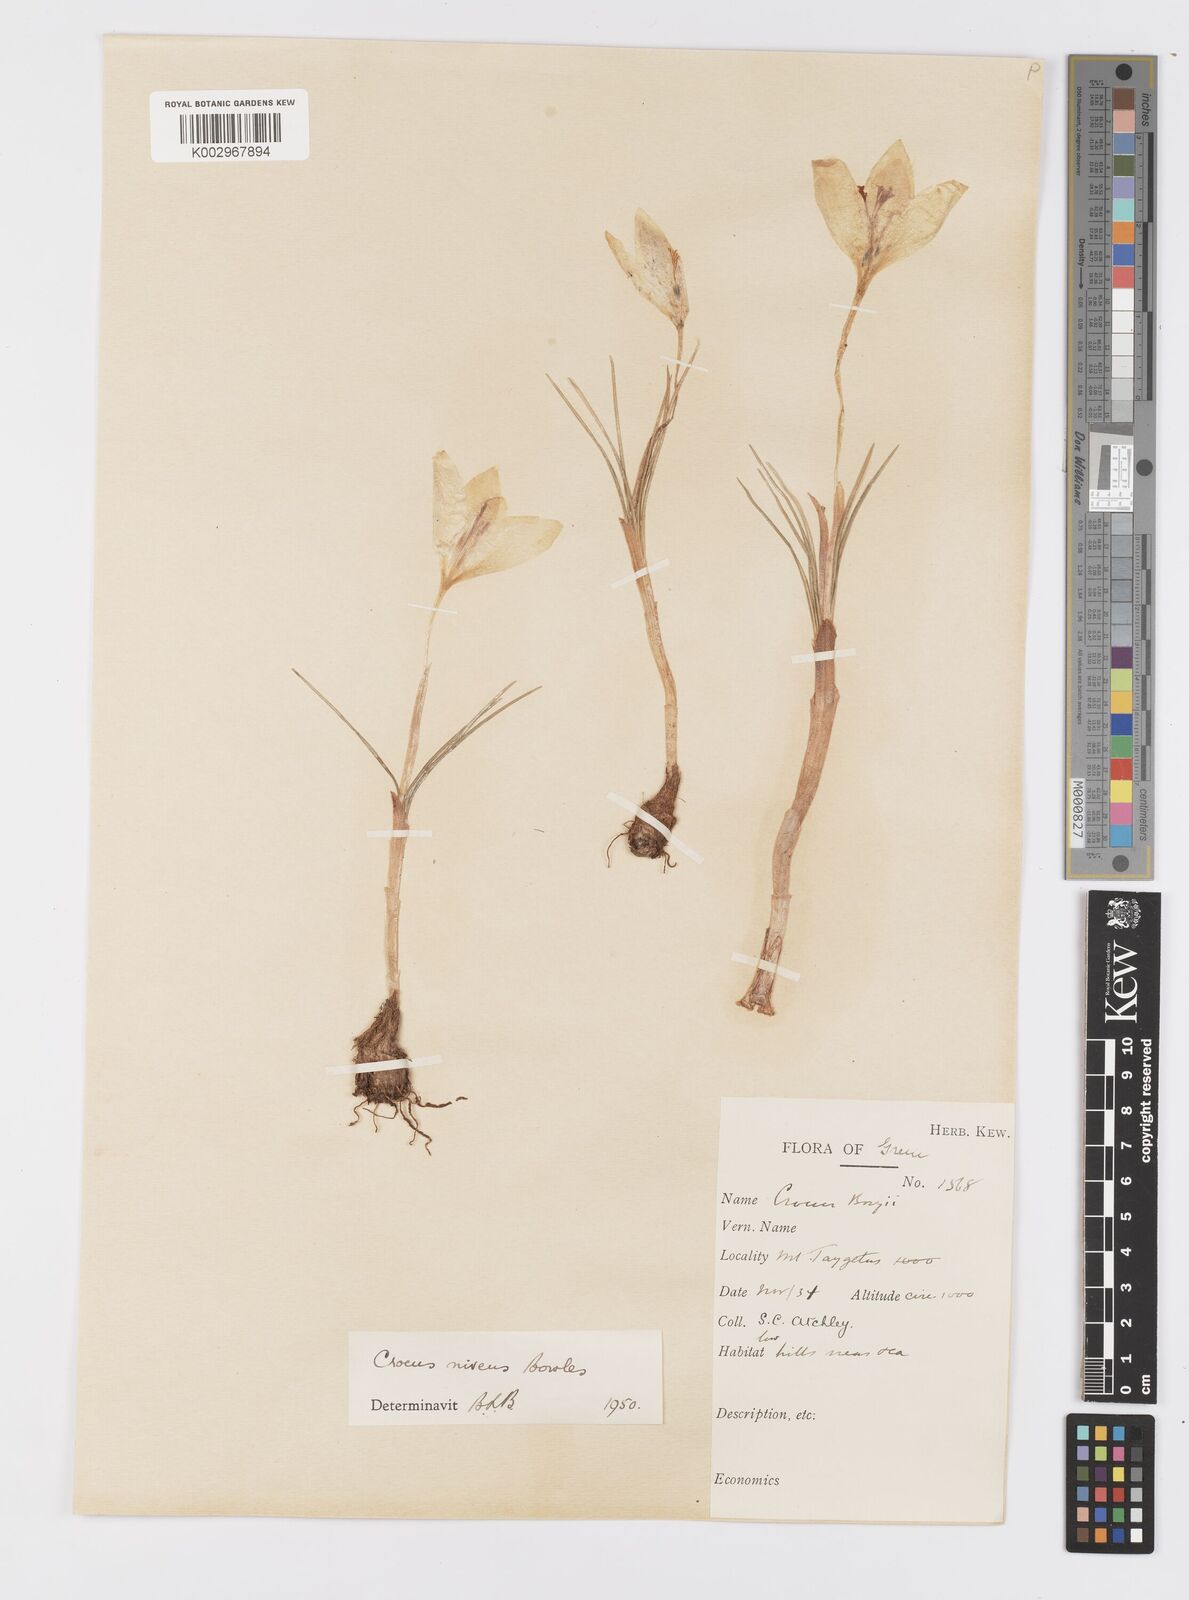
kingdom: Plantae
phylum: Tracheophyta
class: Liliopsida
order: Asparagales
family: Iridaceae
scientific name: Iridaceae
